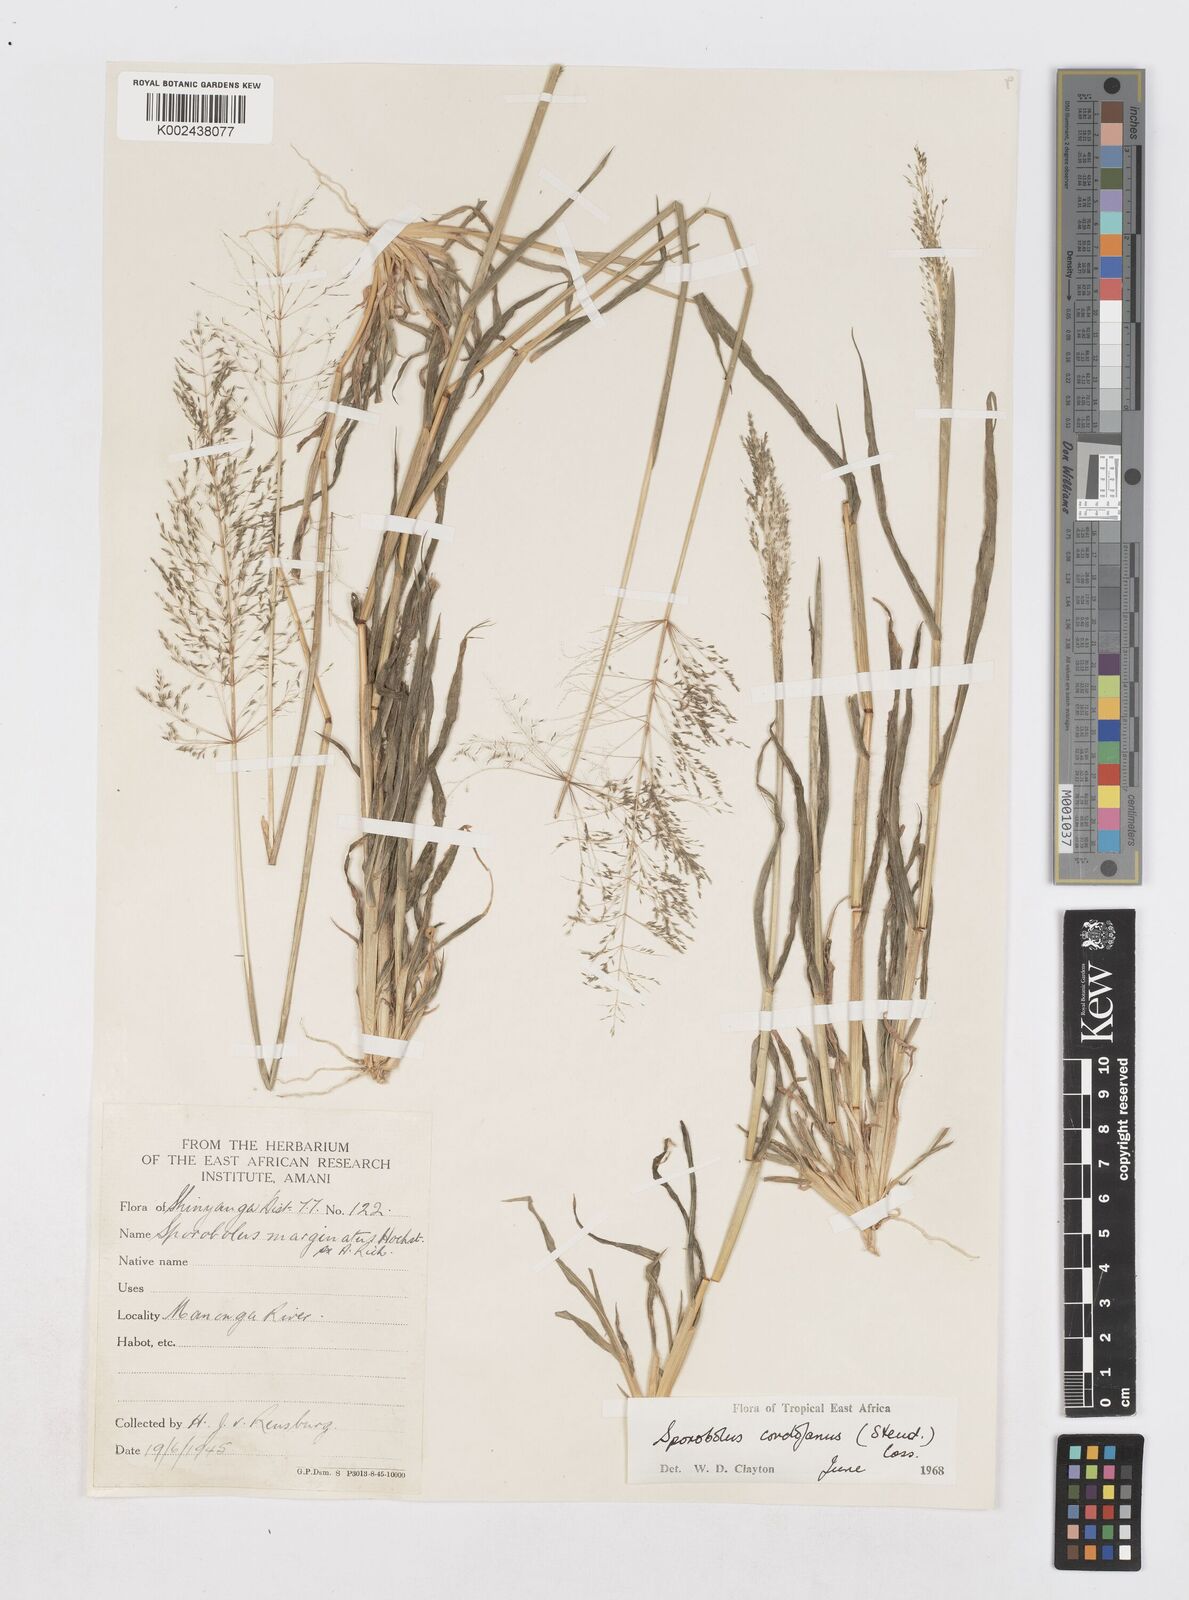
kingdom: Plantae
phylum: Tracheophyta
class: Liliopsida
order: Poales
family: Poaceae
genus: Sporobolus
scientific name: Sporobolus cordofanus
